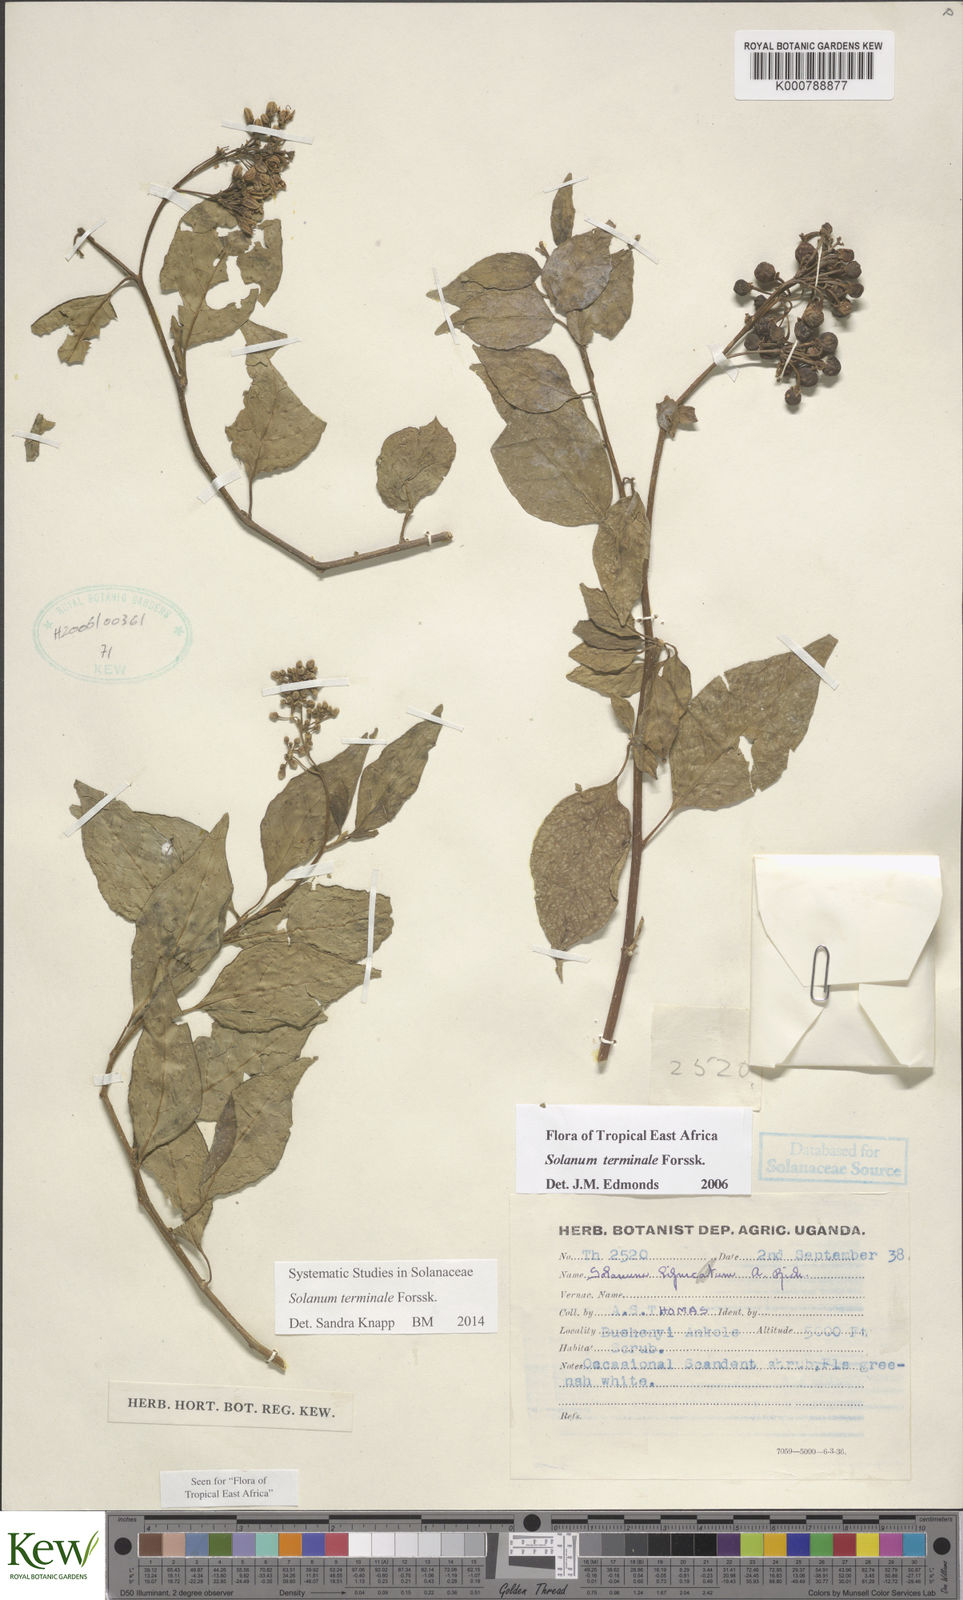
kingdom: Plantae
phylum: Tracheophyta
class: Magnoliopsida
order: Solanales
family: Solanaceae
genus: Solanum
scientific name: Solanum terminale
